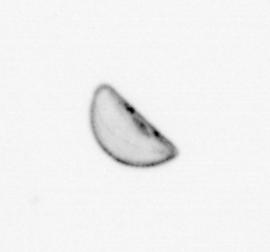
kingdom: Chromista
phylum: Ochrophyta
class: Bacillariophyceae
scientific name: Bacillariophyceae
